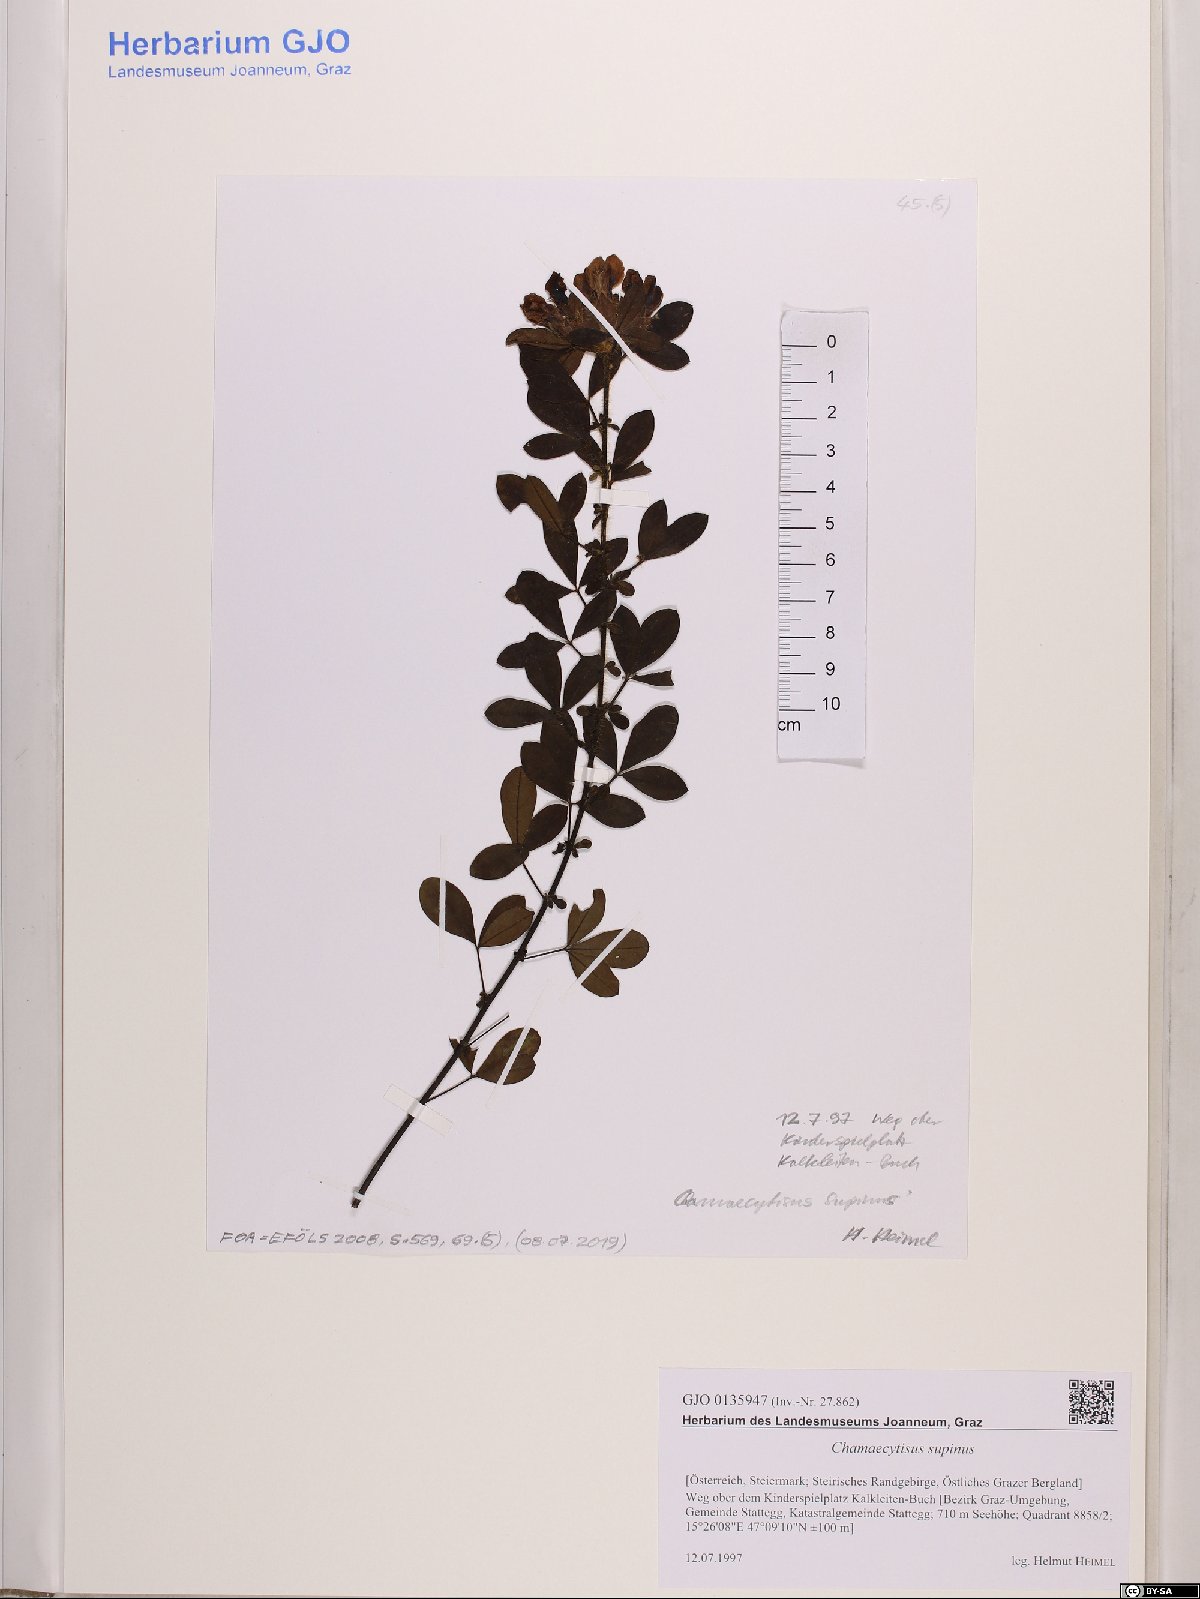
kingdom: Plantae
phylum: Tracheophyta
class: Magnoliopsida
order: Fabales
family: Fabaceae
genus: Chamaecytisus
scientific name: Chamaecytisus supinus
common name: Clustered broom
